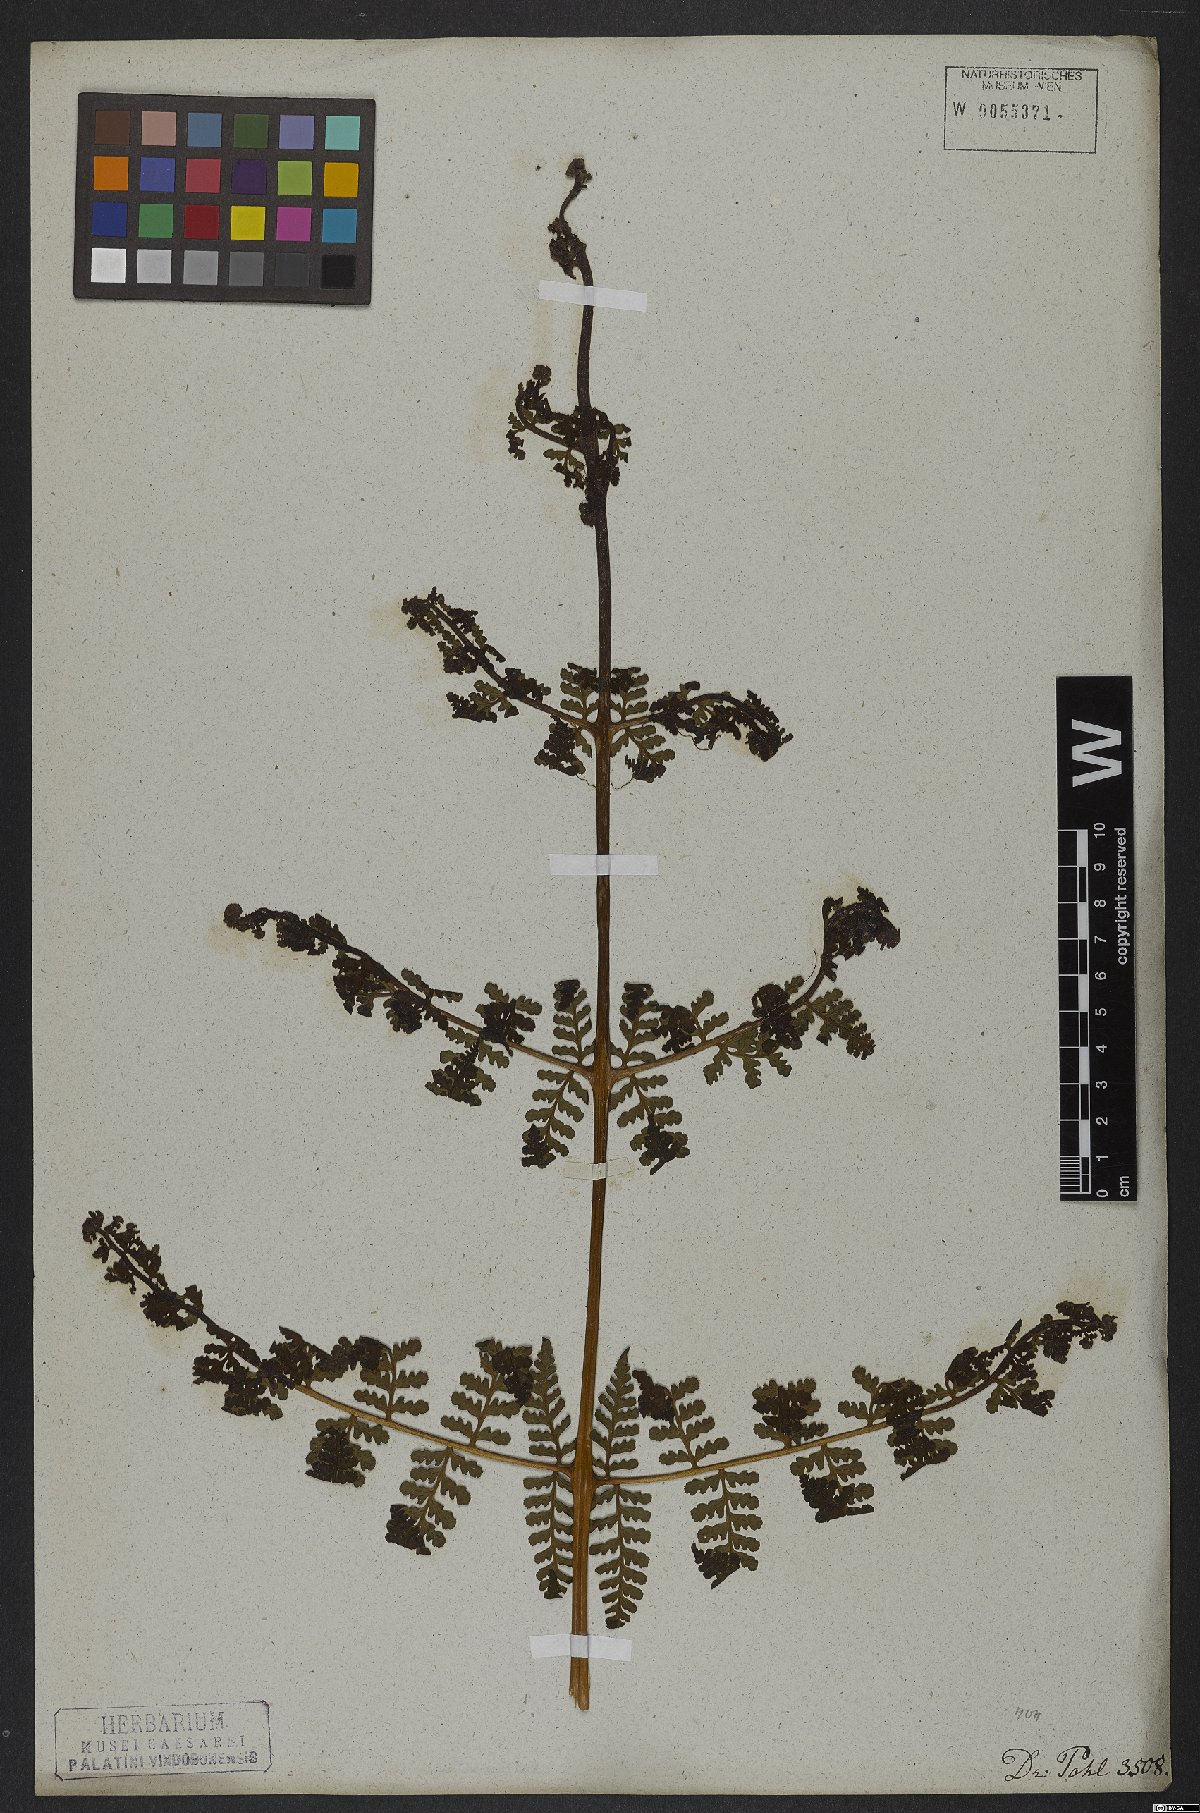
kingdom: Plantae
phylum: Tracheophyta
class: Polypodiopsida
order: Polypodiales
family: Dennstaedtiaceae
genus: Dennstaedtia
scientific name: Dennstaedtia dissecta
